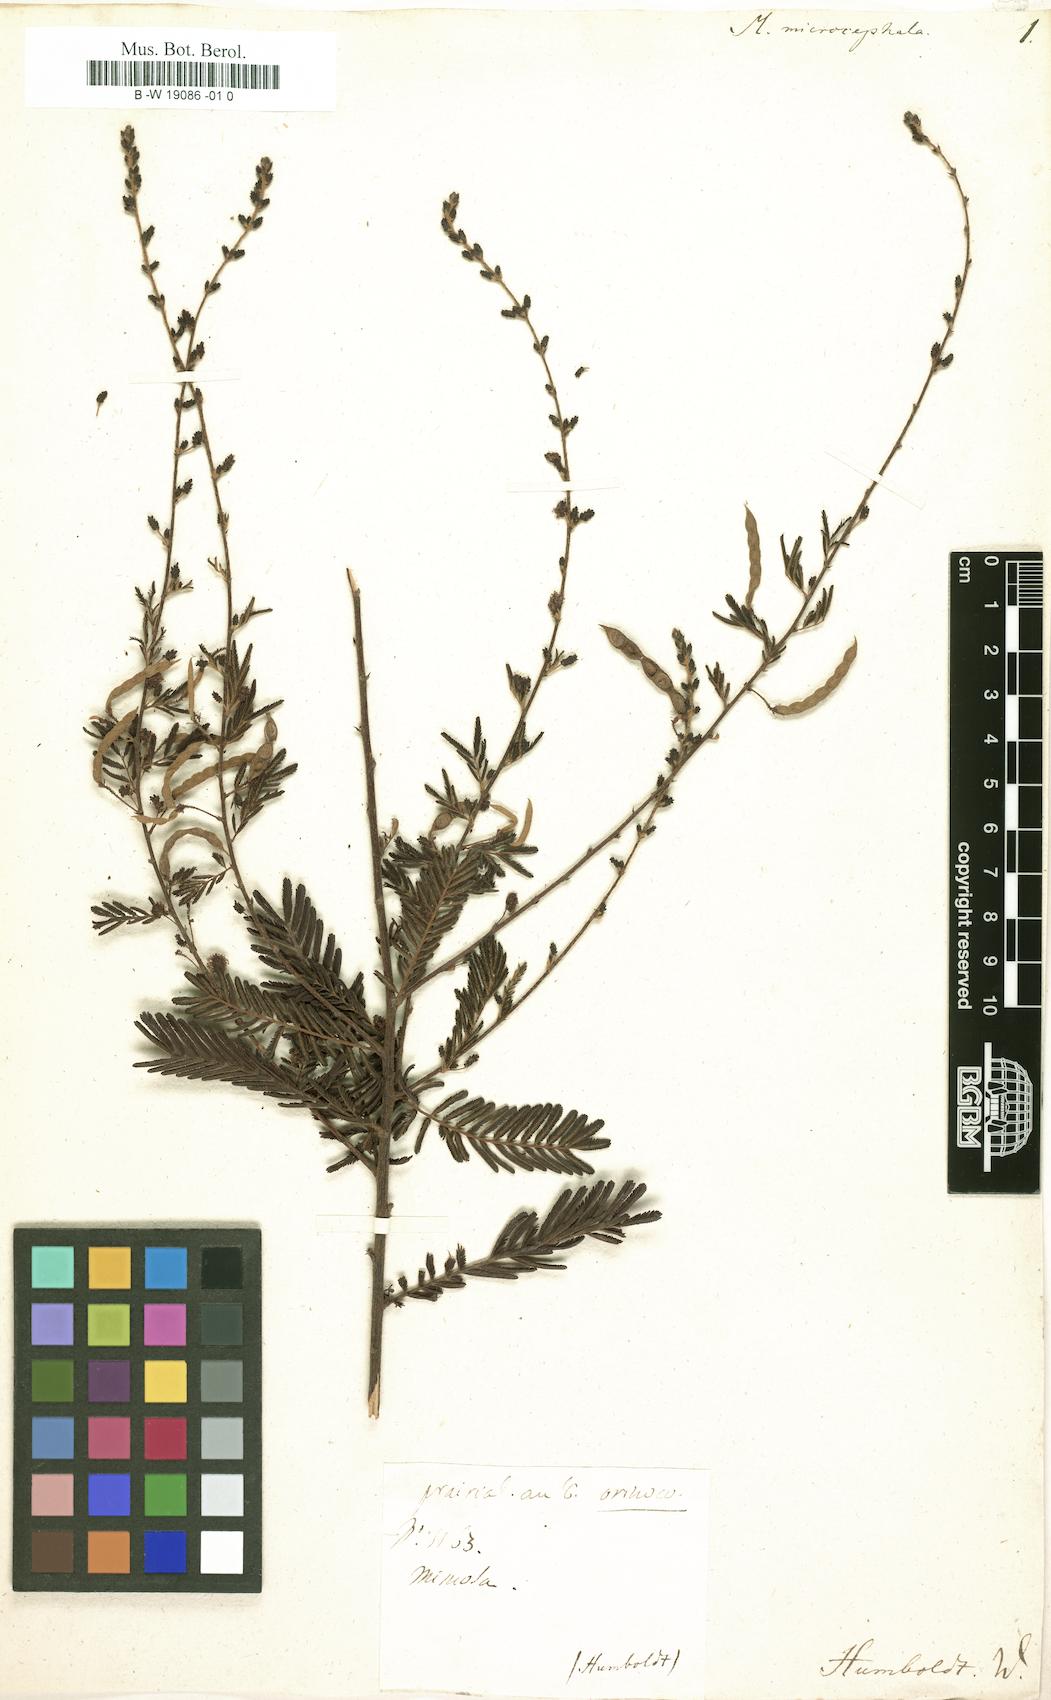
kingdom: Plantae
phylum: Tracheophyta
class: Magnoliopsida
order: Fabales
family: Fabaceae
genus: Mimosa
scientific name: Mimosa microcephala
